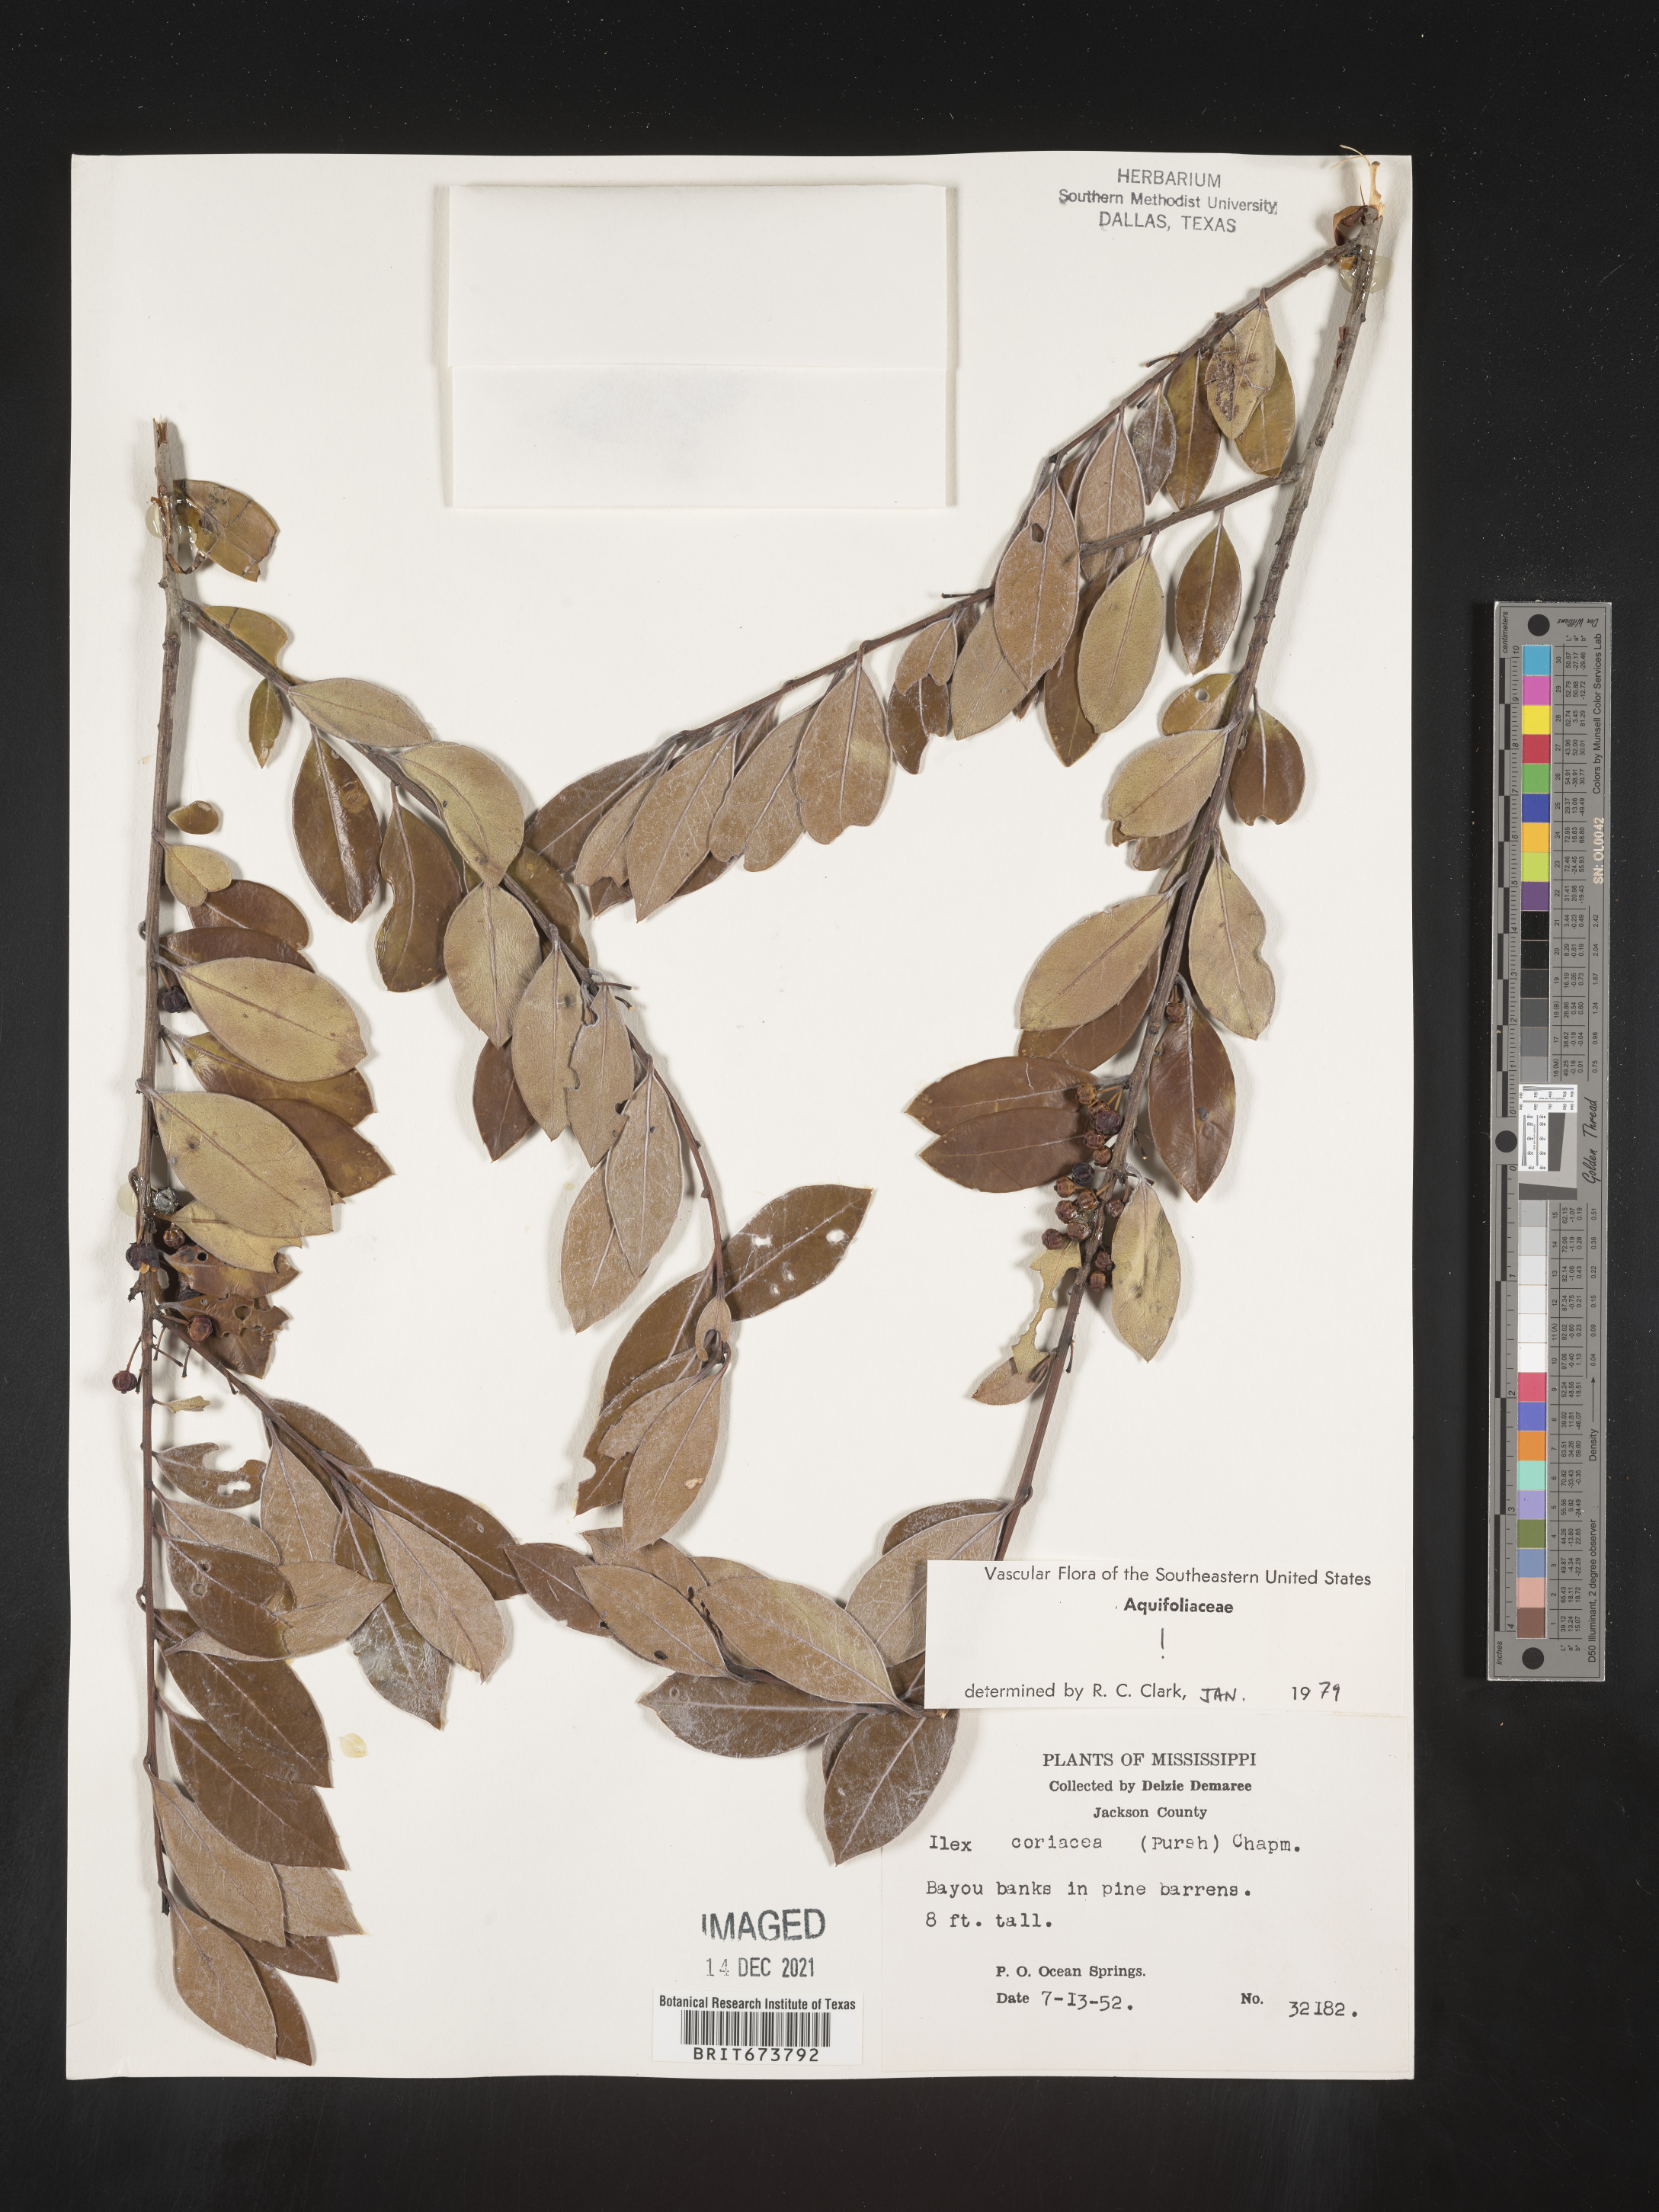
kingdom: Plantae
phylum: Tracheophyta
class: Magnoliopsida
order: Aquifoliales
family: Aquifoliaceae
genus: Ilex
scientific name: Ilex coriacea
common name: Sweet gallberry
